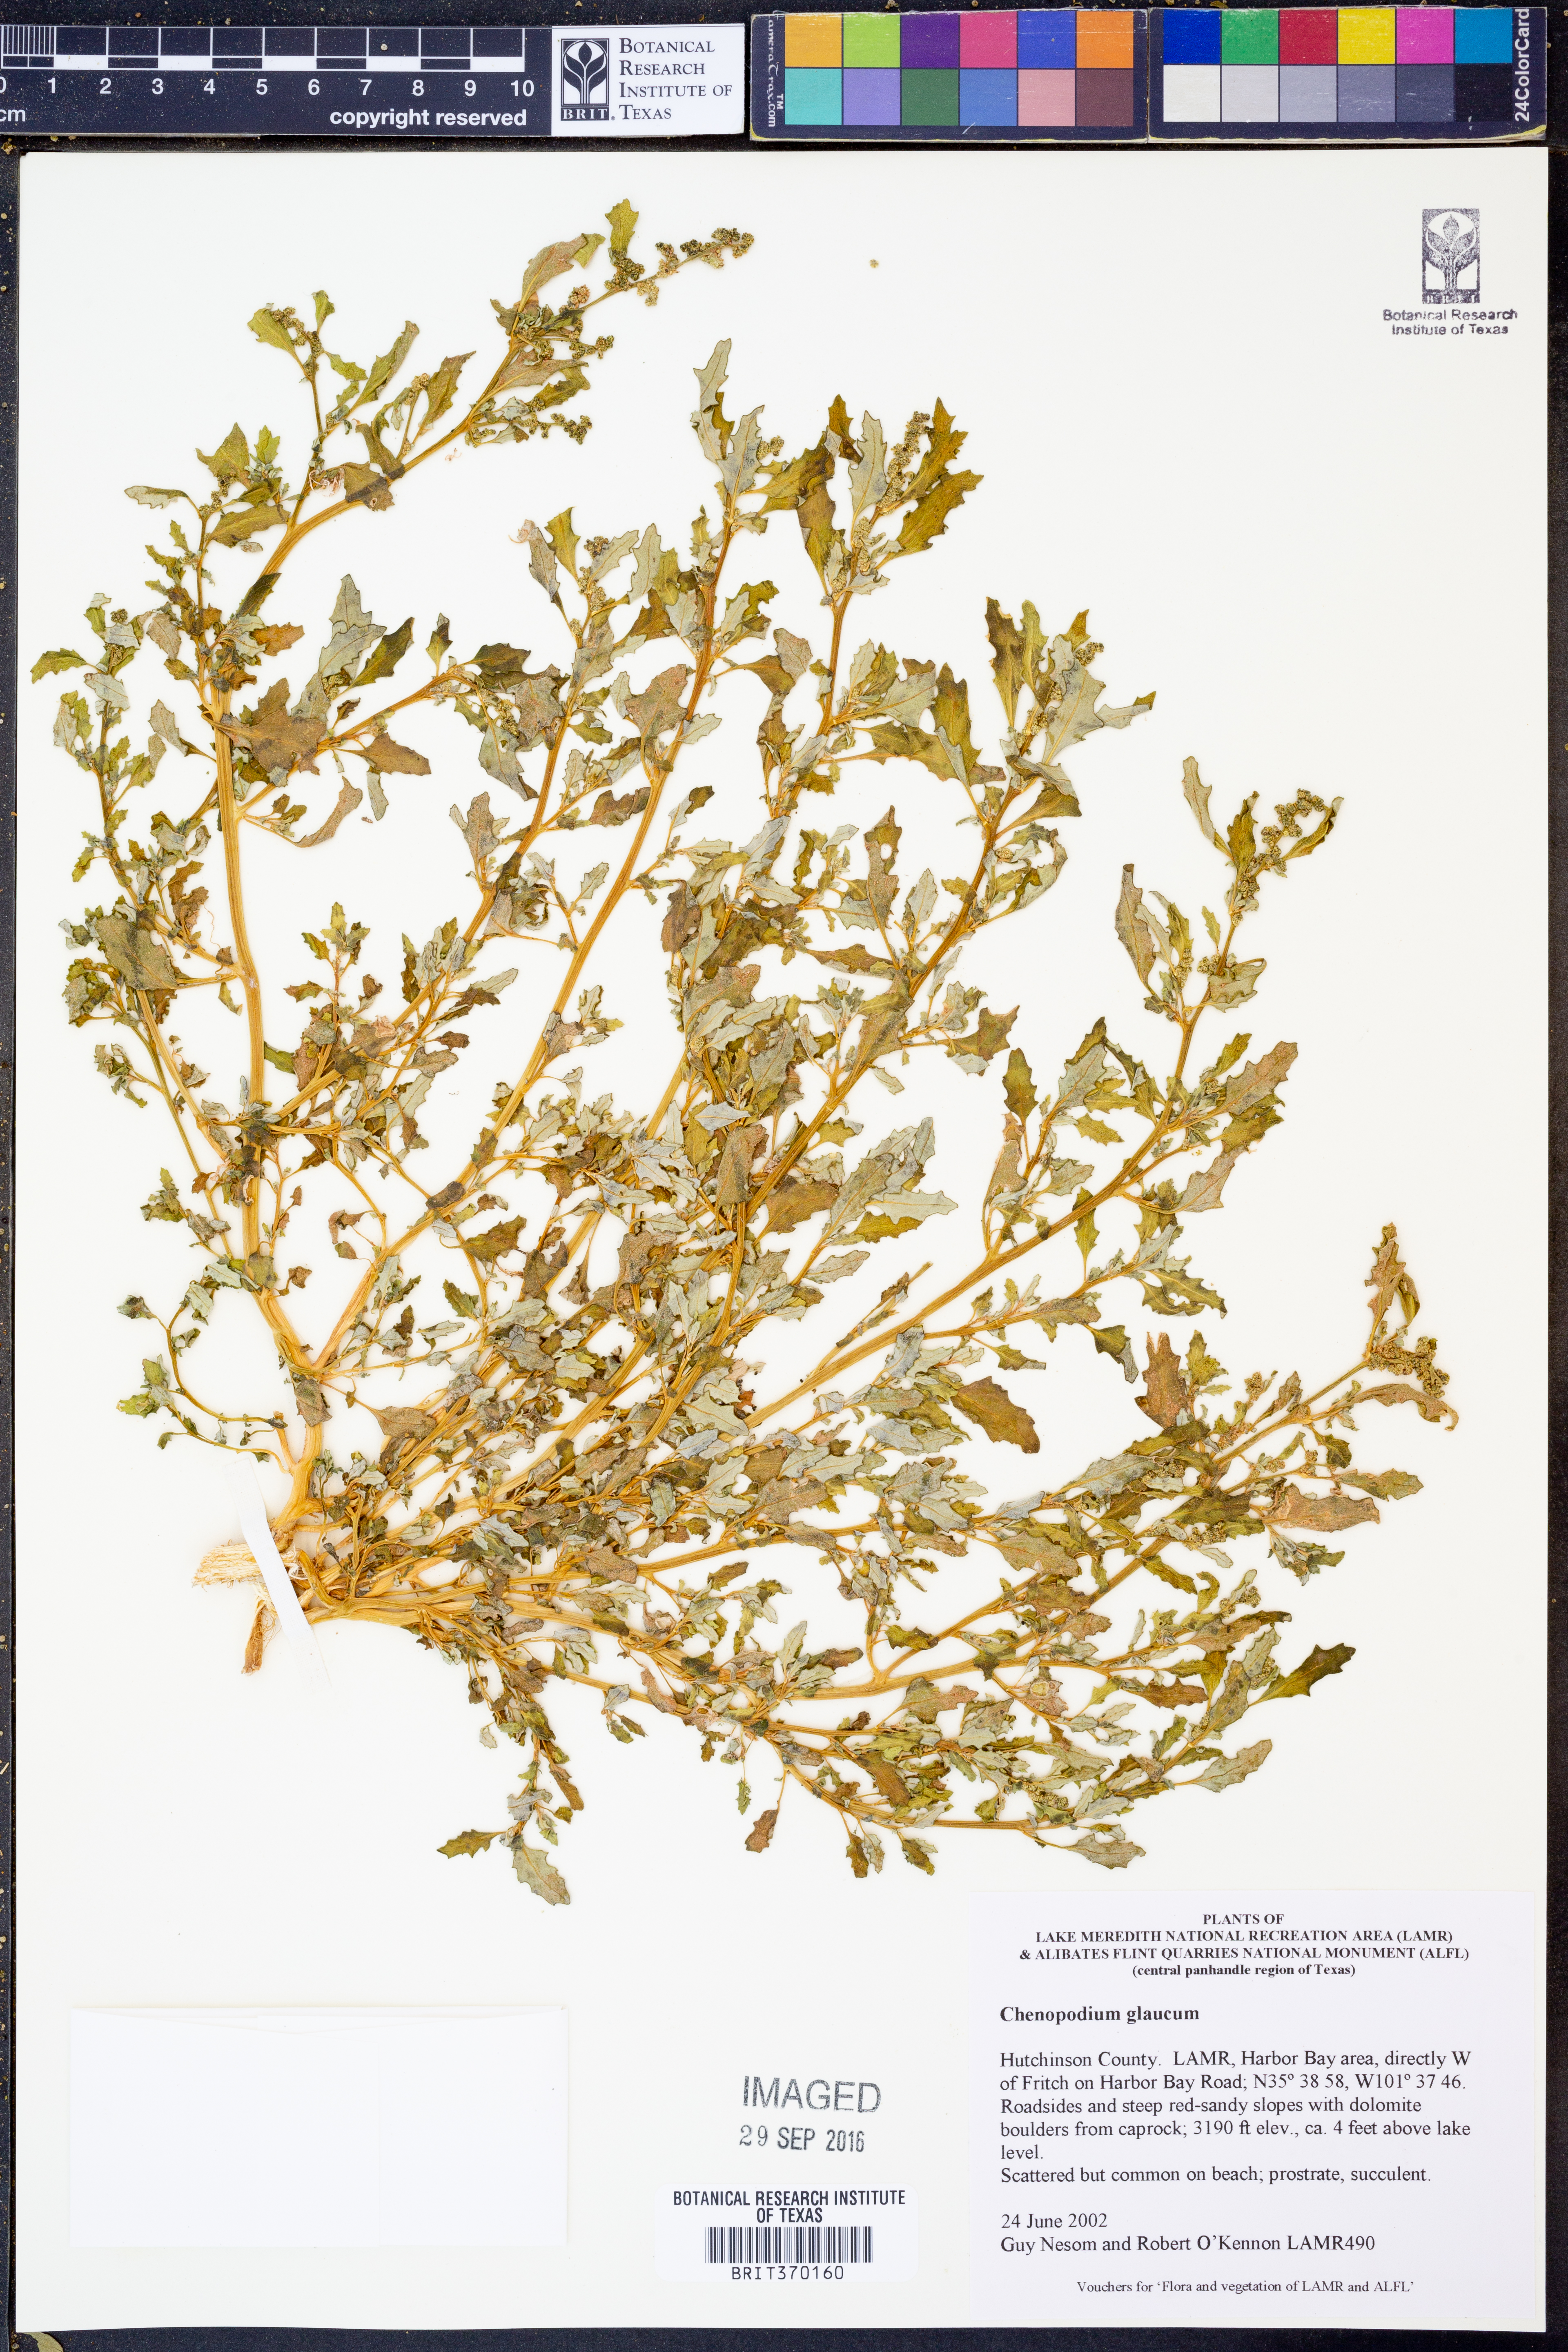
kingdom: Plantae
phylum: Tracheophyta
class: Magnoliopsida
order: Caryophyllales
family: Amaranthaceae
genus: Oxybasis
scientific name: Oxybasis glauca
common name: Glaucous goosefoot
